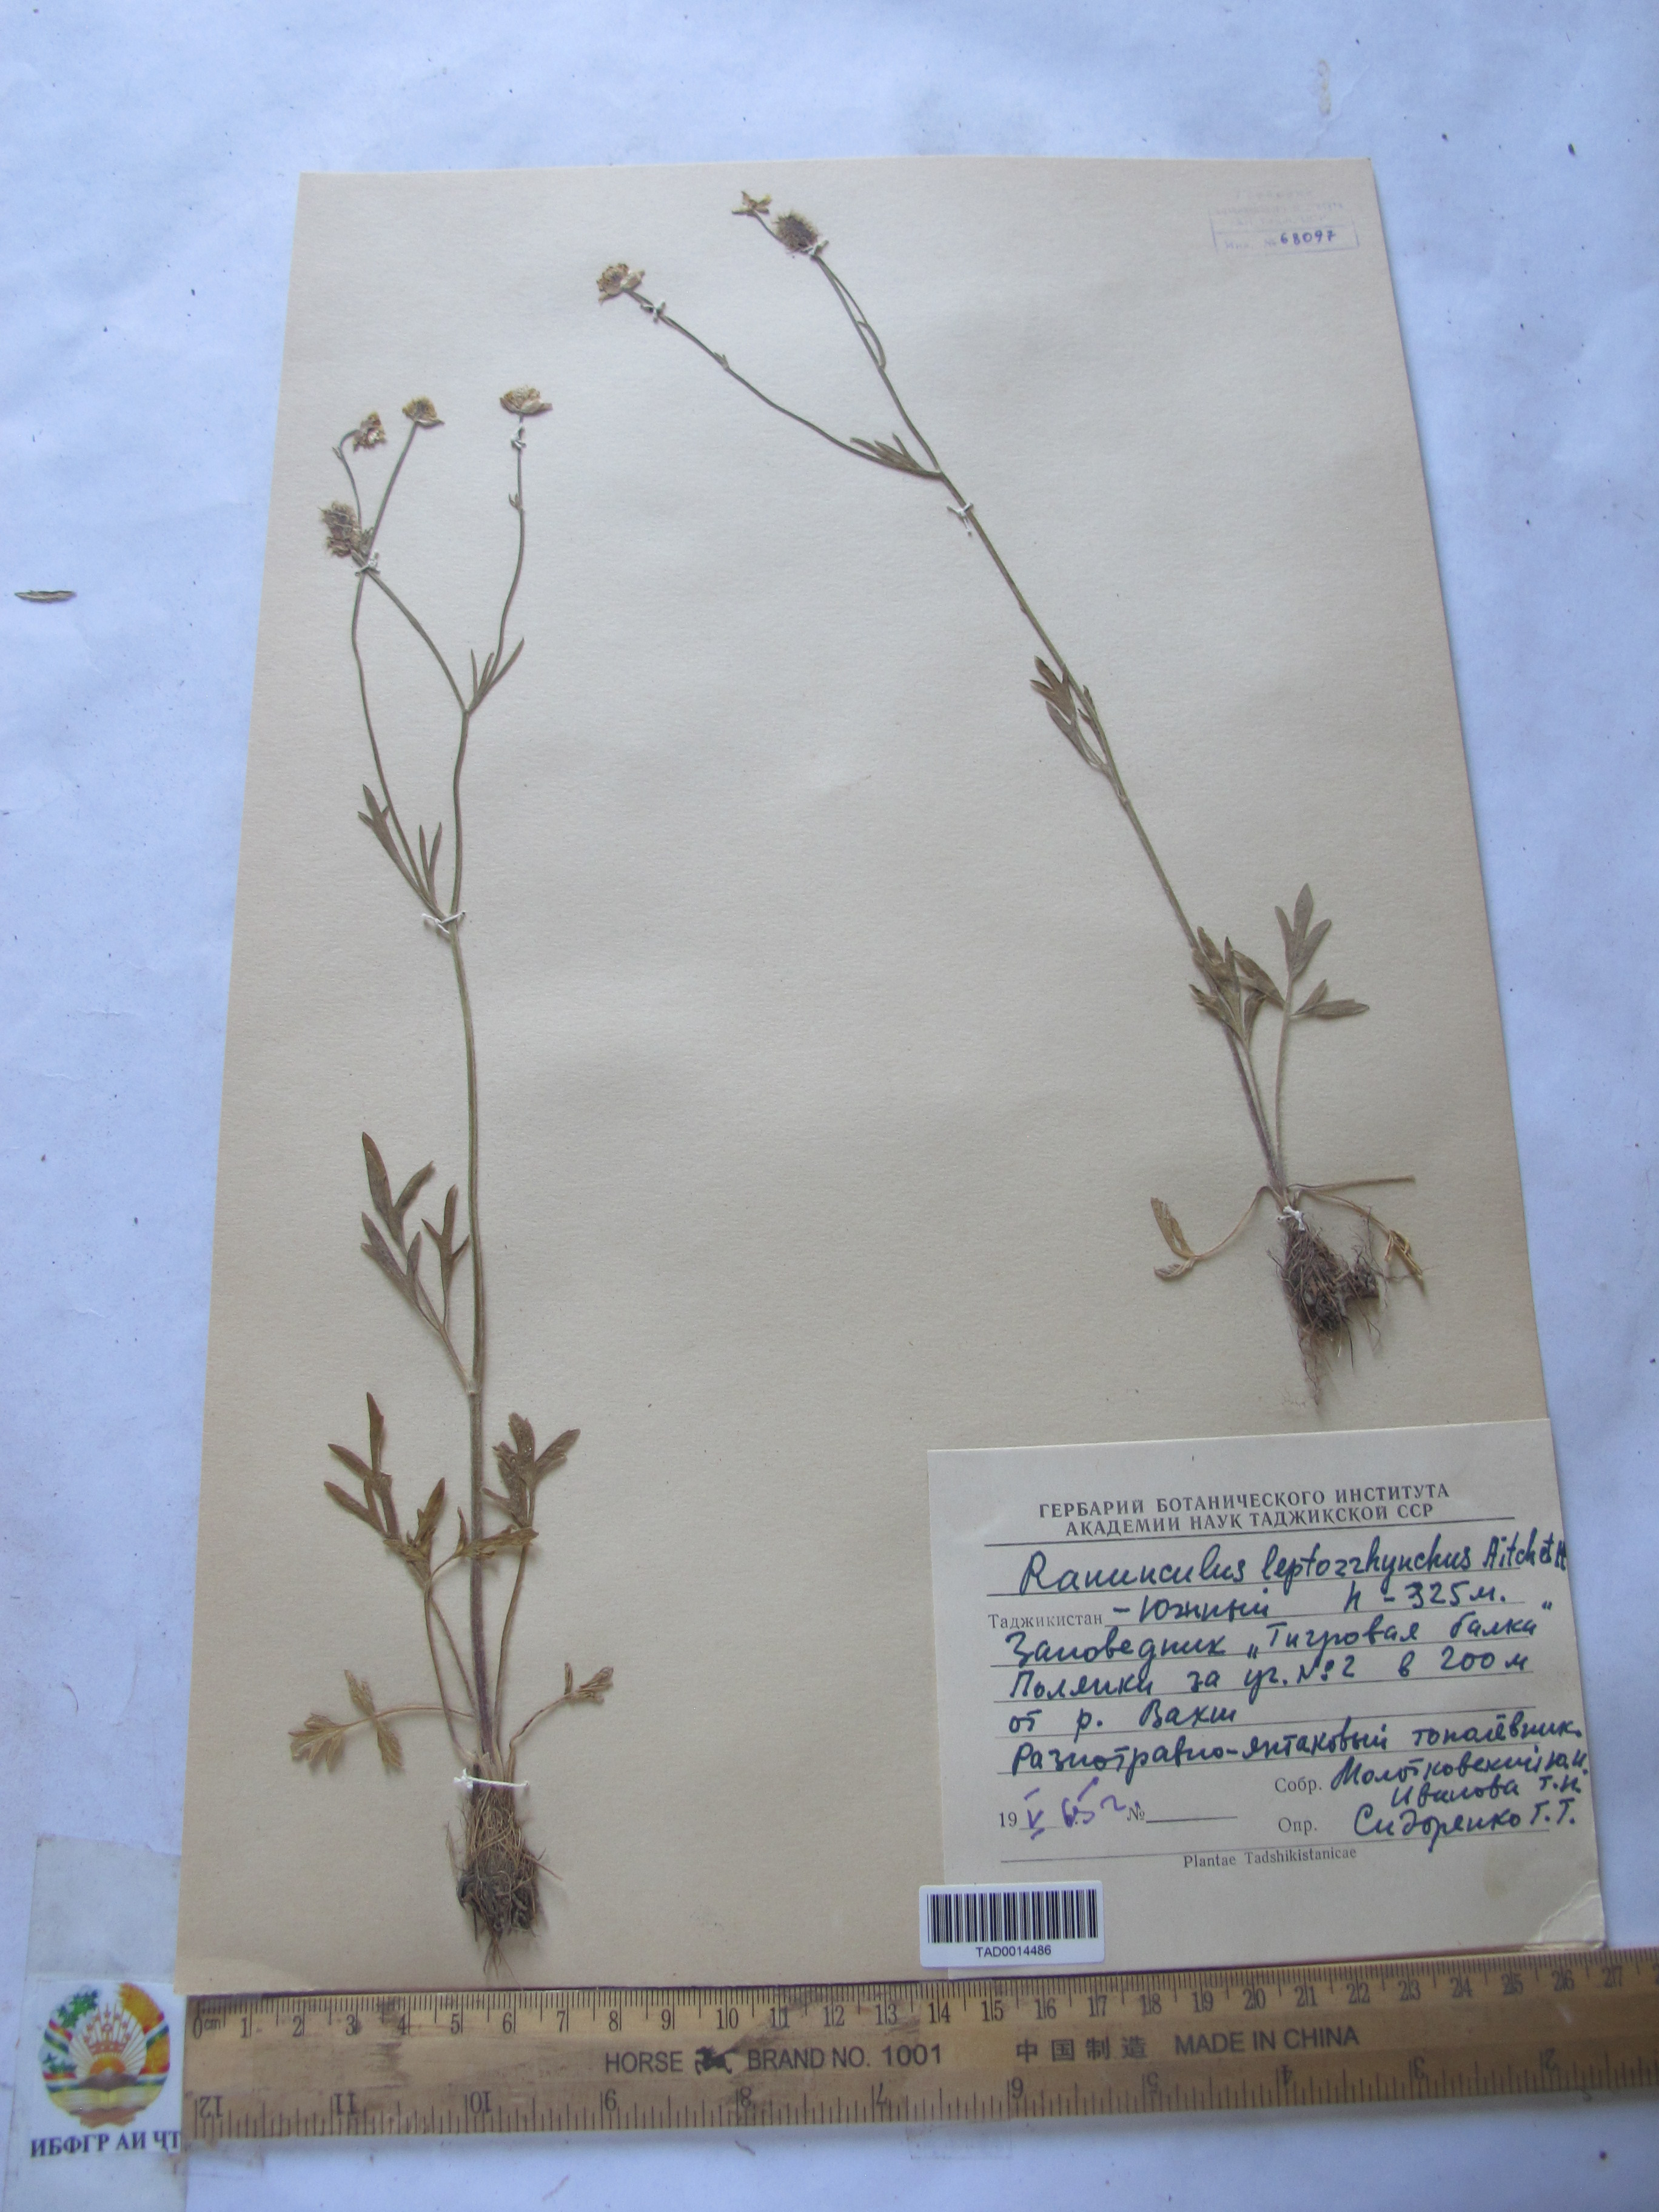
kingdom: Plantae
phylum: Tracheophyta
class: Magnoliopsida
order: Ranunculales
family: Ranunculaceae
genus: Ranunculus
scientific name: Ranunculus leptorrhynchus
